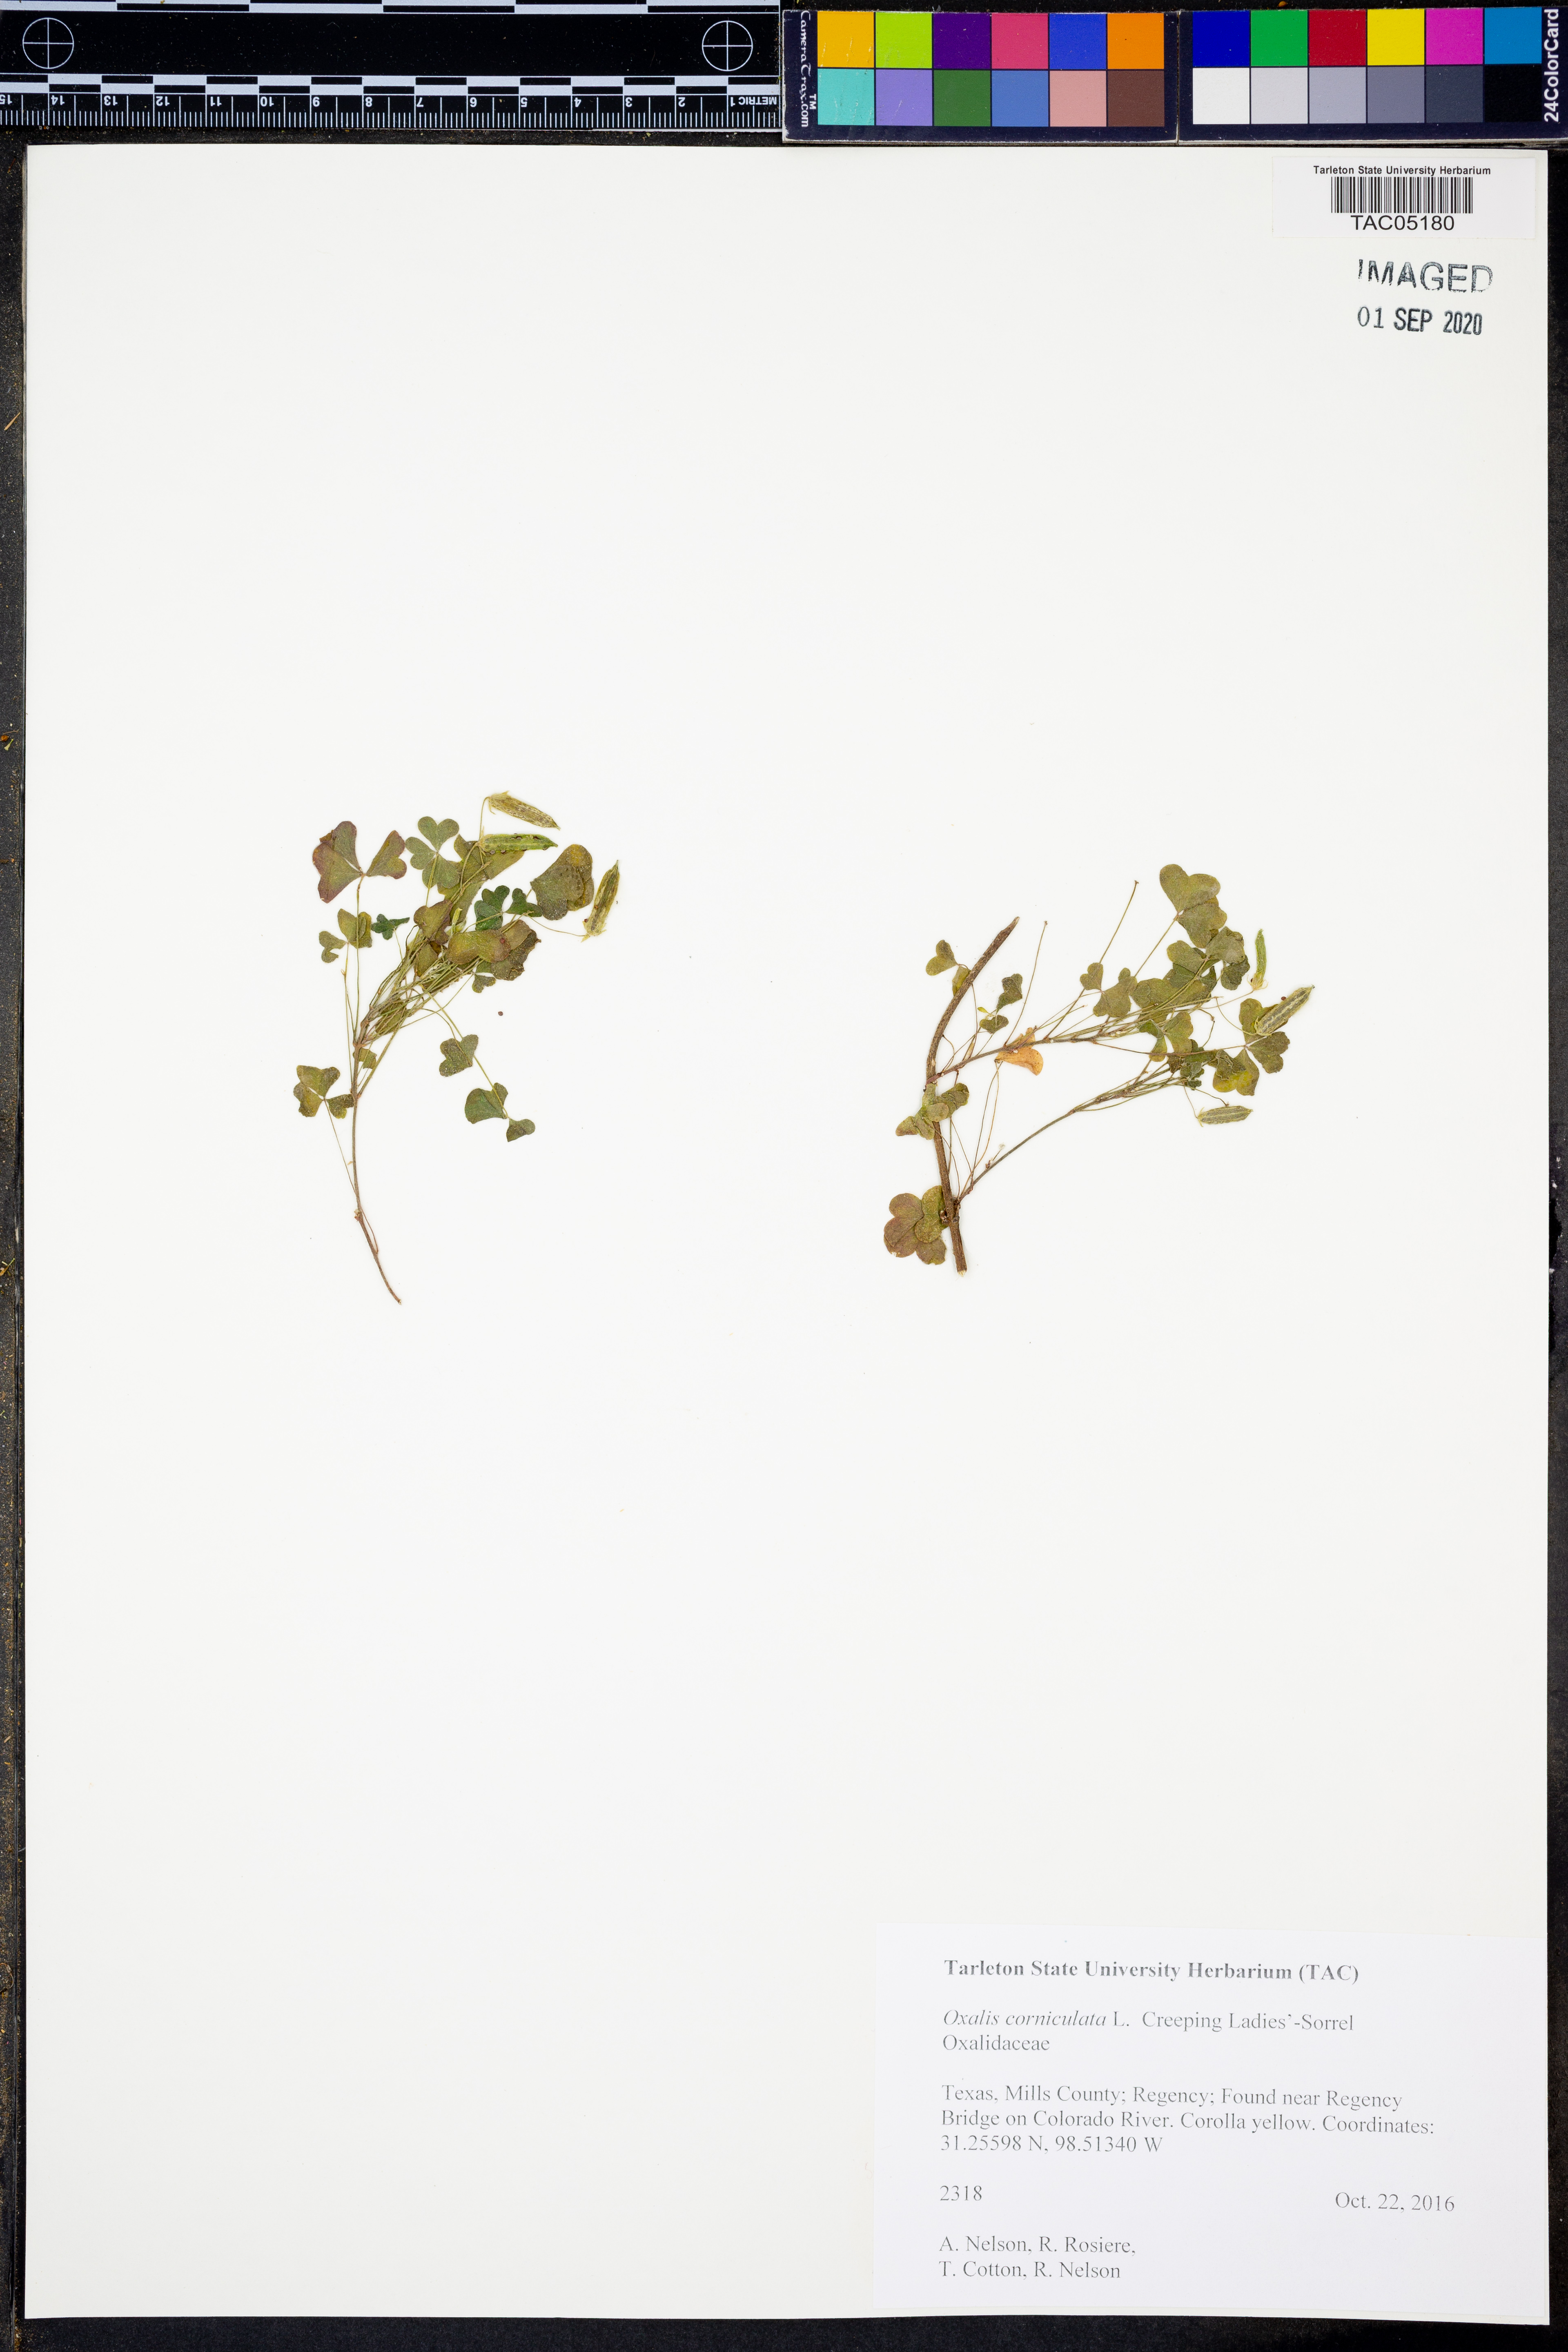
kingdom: Plantae
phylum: Tracheophyta
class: Magnoliopsida
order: Oxalidales
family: Oxalidaceae
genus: Oxalis
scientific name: Oxalis corniculata
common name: Procumbent yellow-sorrel
